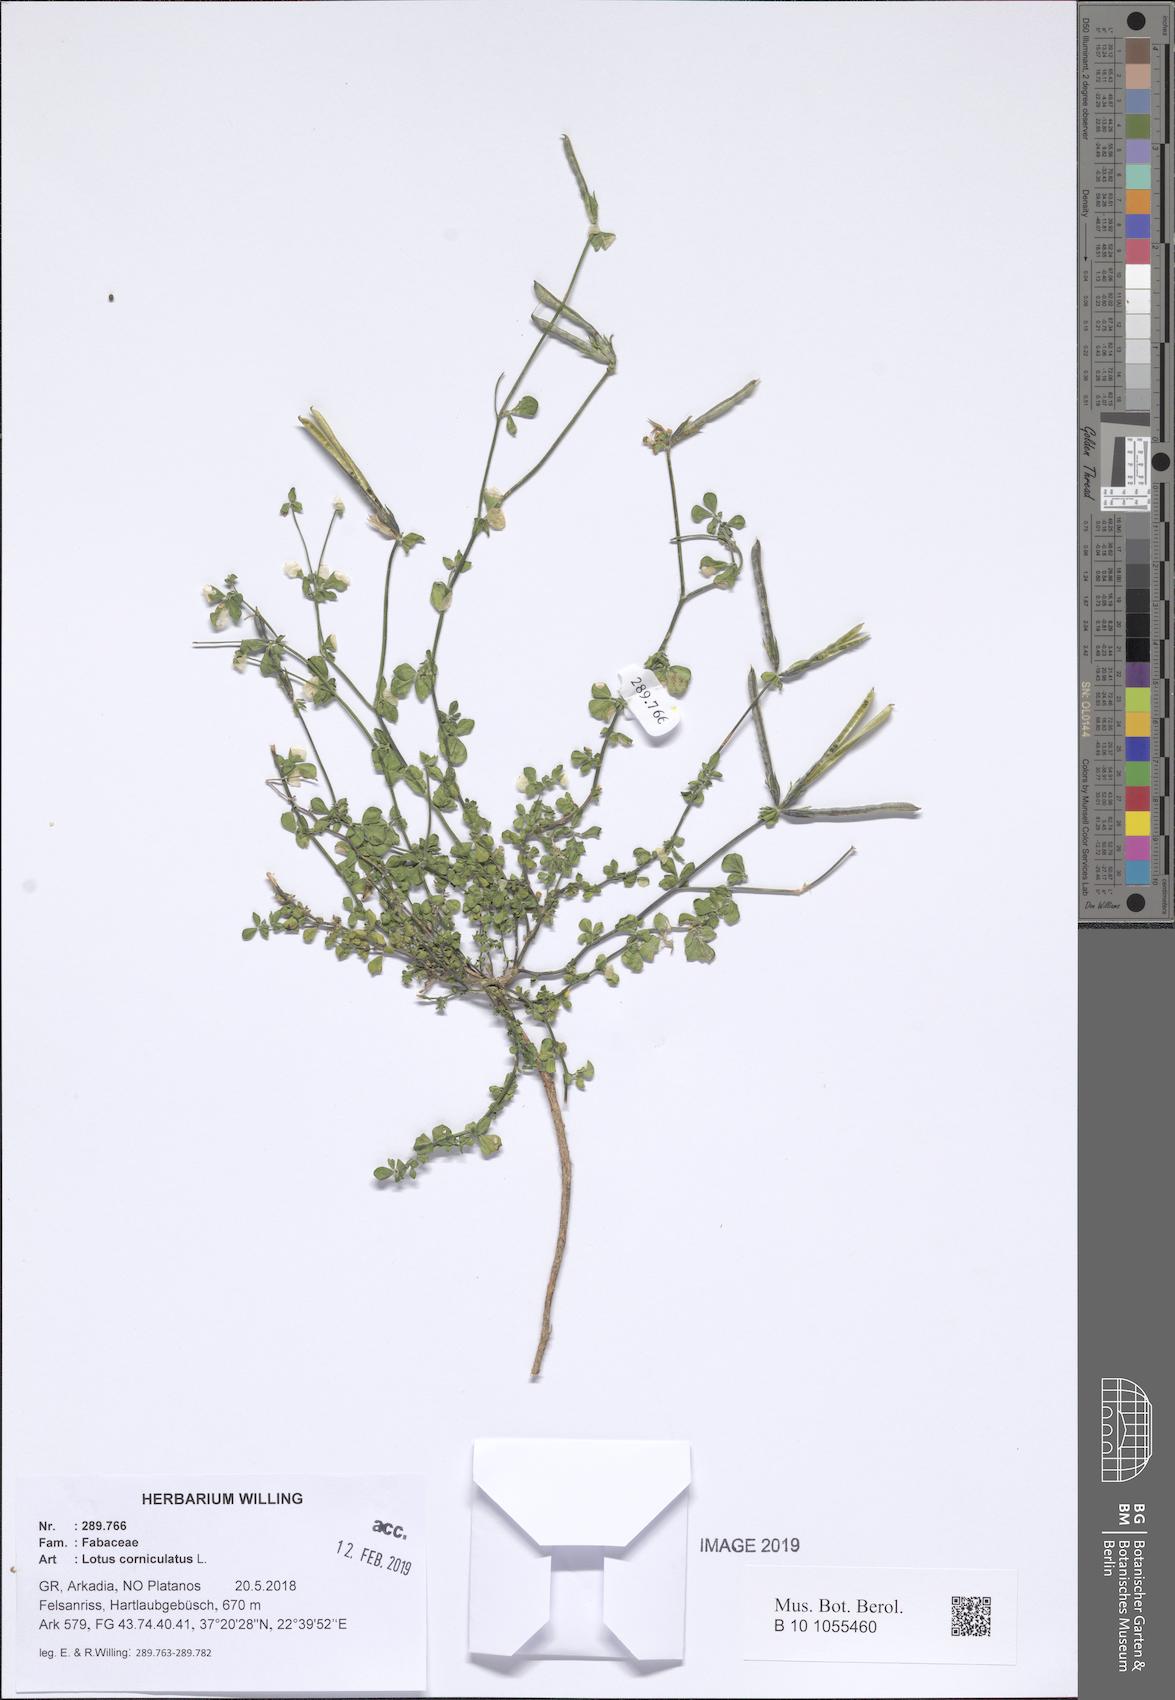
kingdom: Plantae
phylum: Tracheophyta
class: Magnoliopsida
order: Fabales
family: Fabaceae
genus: Lotus
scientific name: Lotus corniculatus
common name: Common bird's-foot-trefoil
